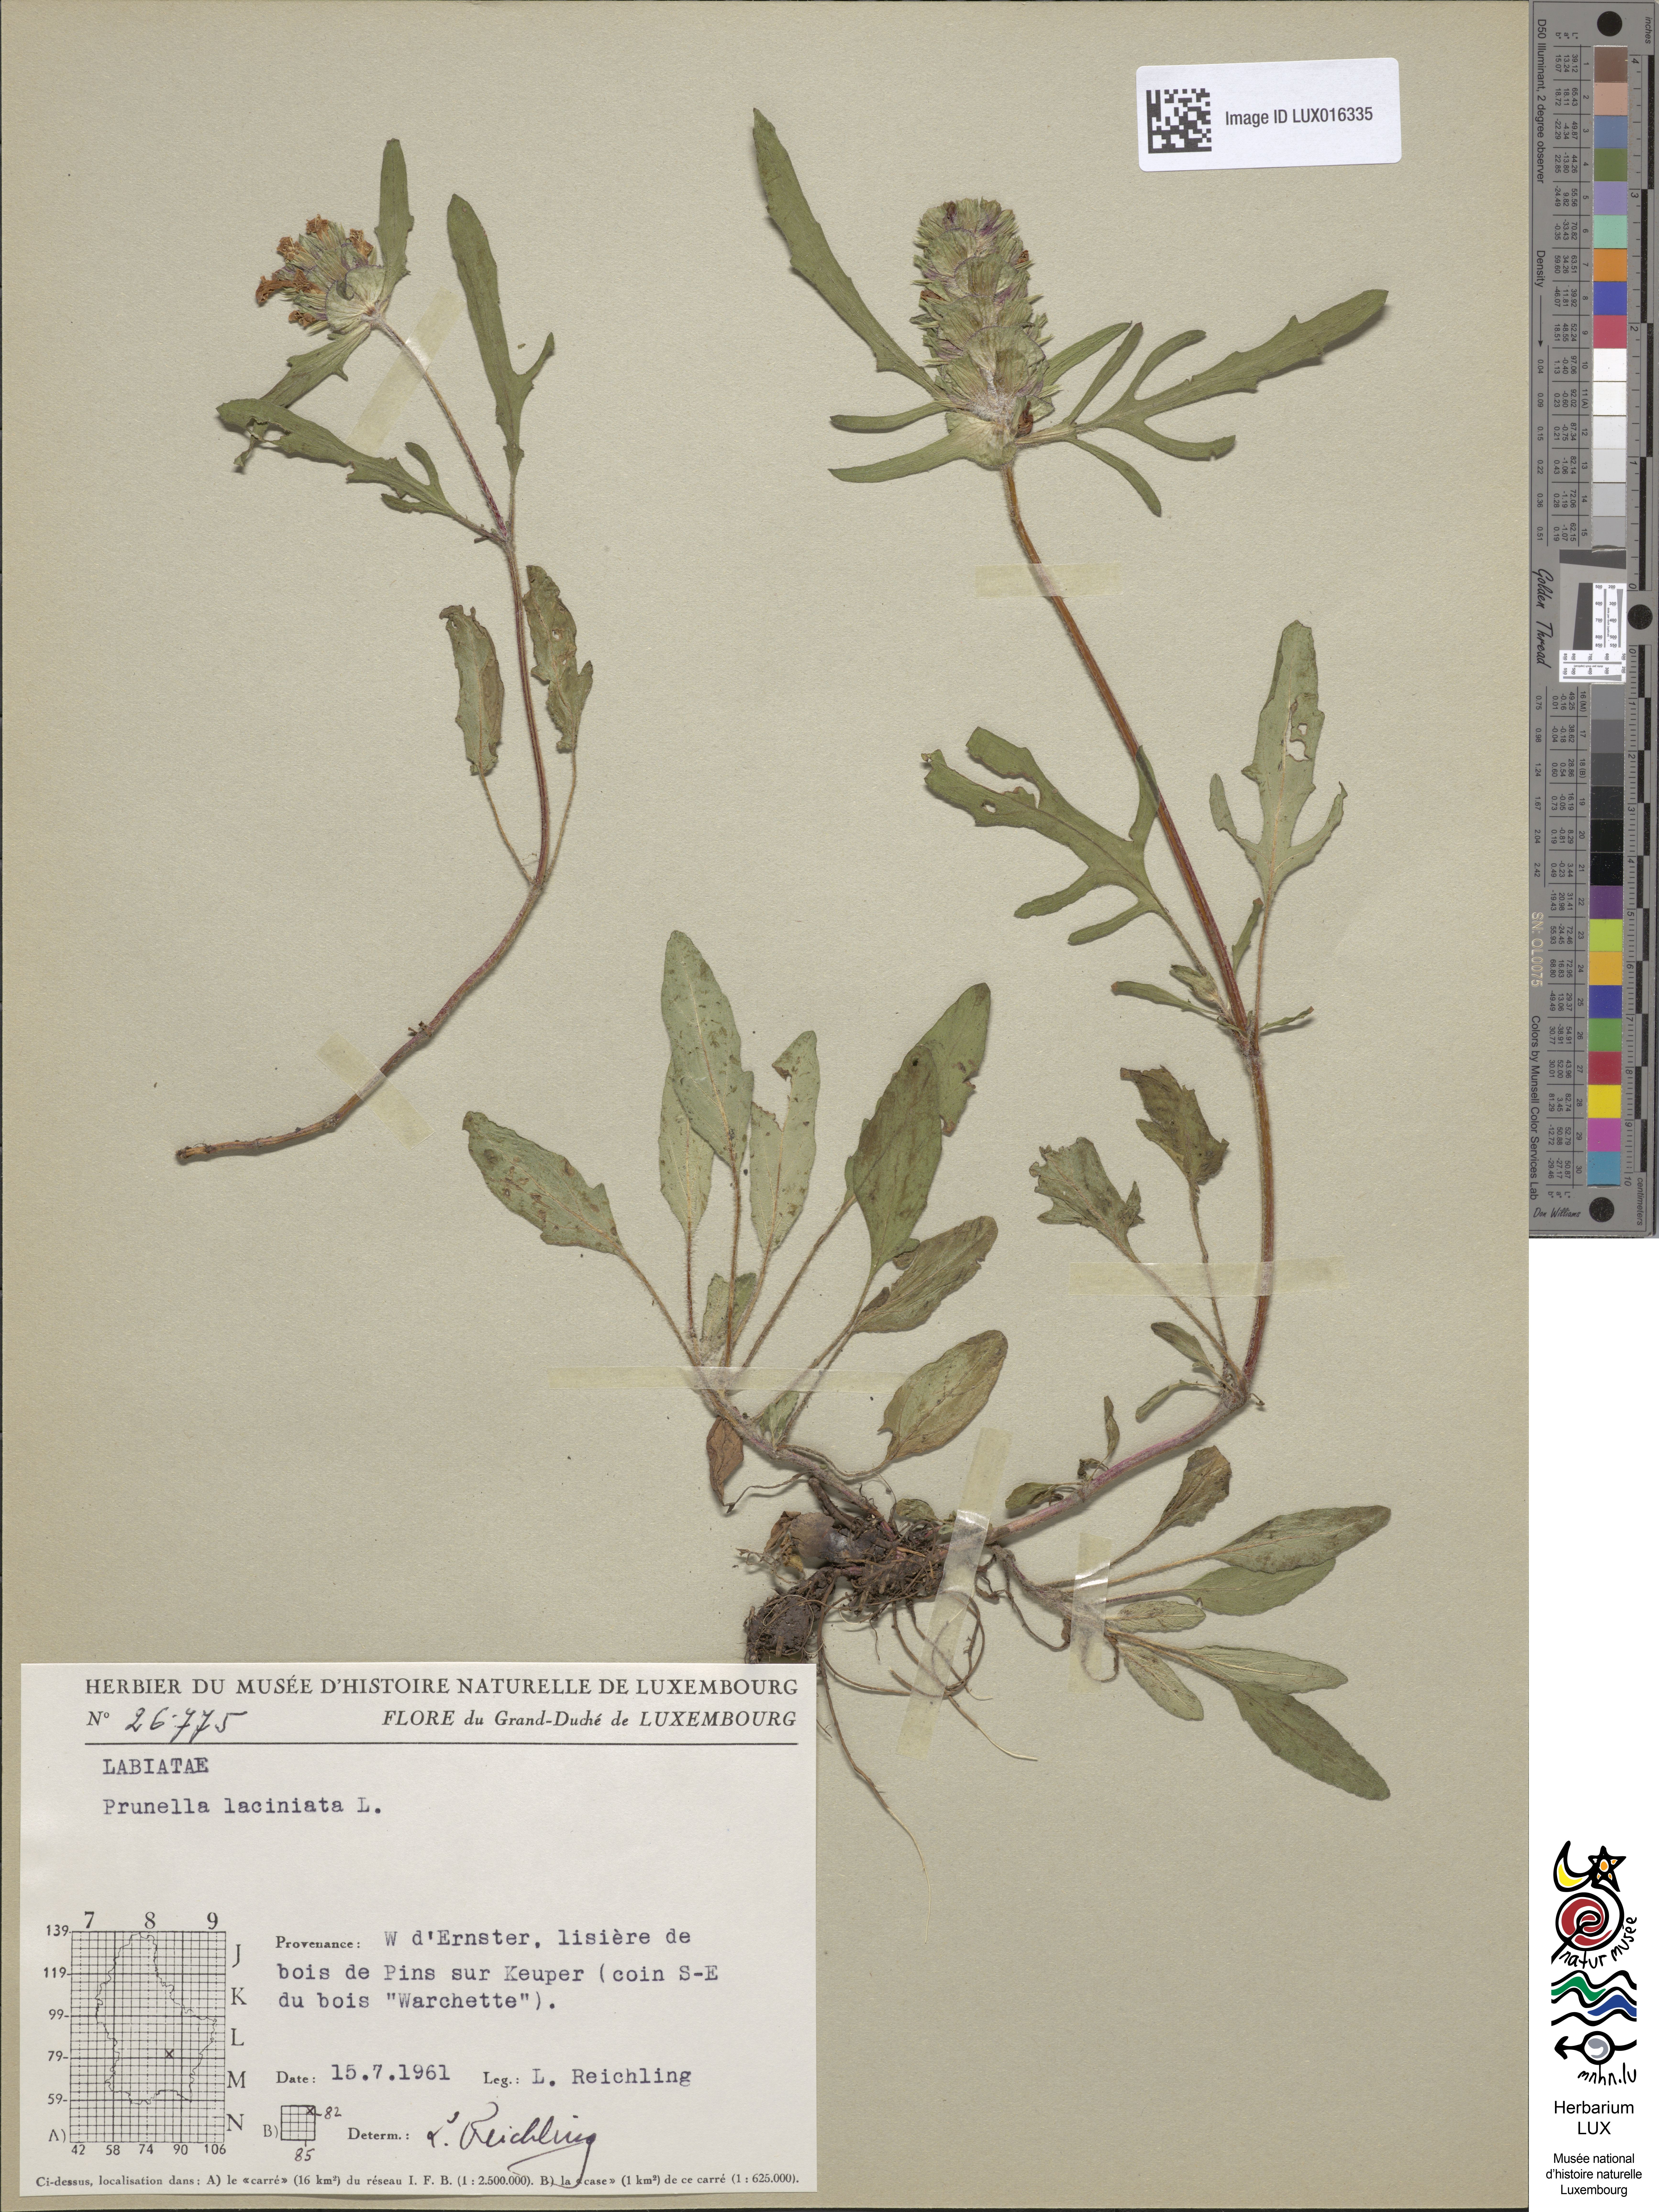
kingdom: Plantae
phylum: Tracheophyta
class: Magnoliopsida
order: Lamiales
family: Lamiaceae
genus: Prunella
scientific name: Prunella laciniata
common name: Cut-leaved selfheal
